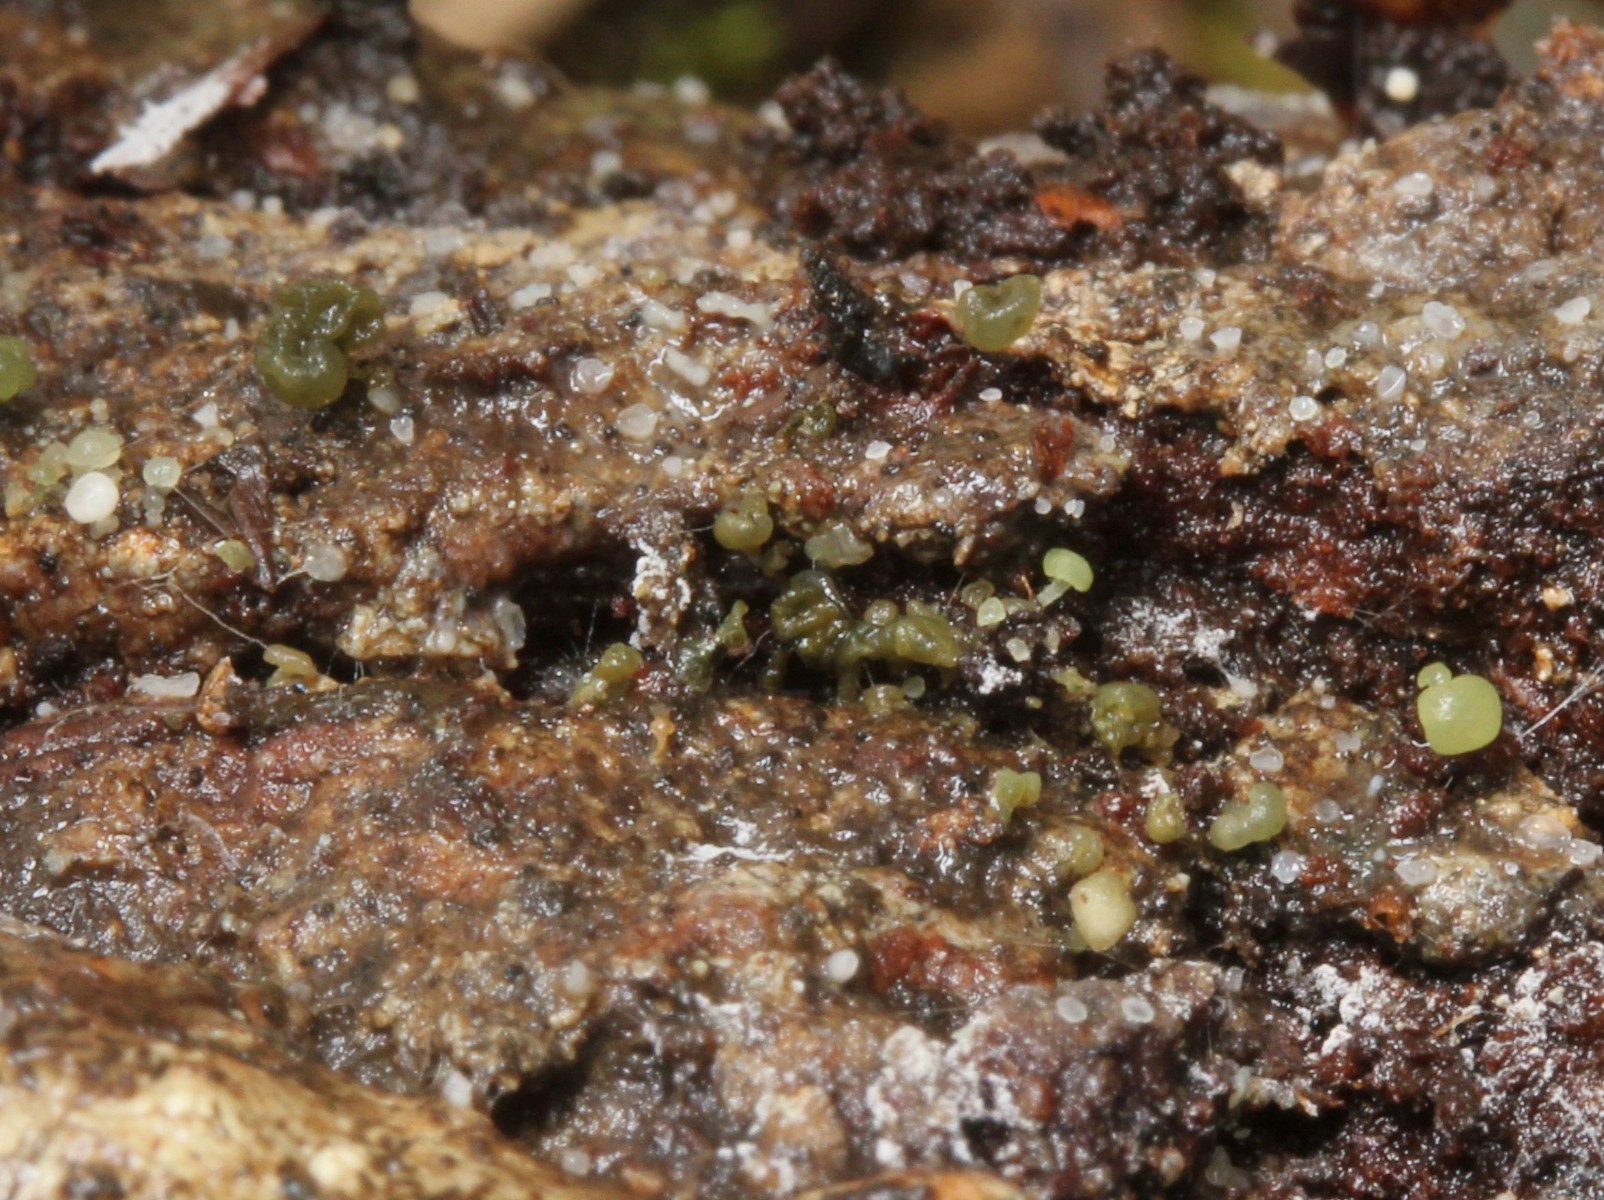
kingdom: Fungi
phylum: Ascomycota
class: Leotiomycetes
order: Helotiales
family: Tricladiaceae
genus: Cudoniella
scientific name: Cudoniella buissonii
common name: nåleved-dyndskive
